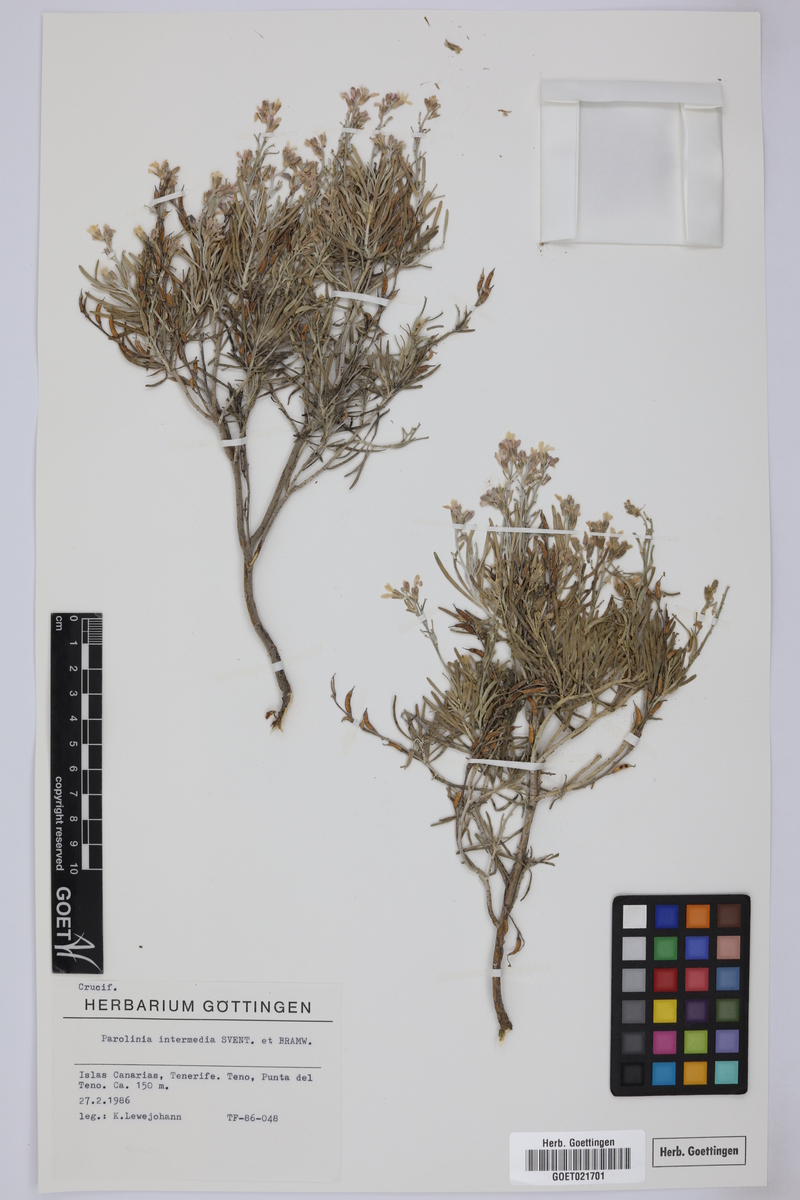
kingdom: Plantae
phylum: Tracheophyta
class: Magnoliopsida
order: Brassicales
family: Brassicaceae
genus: Parolinia
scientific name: Parolinia intermedia
